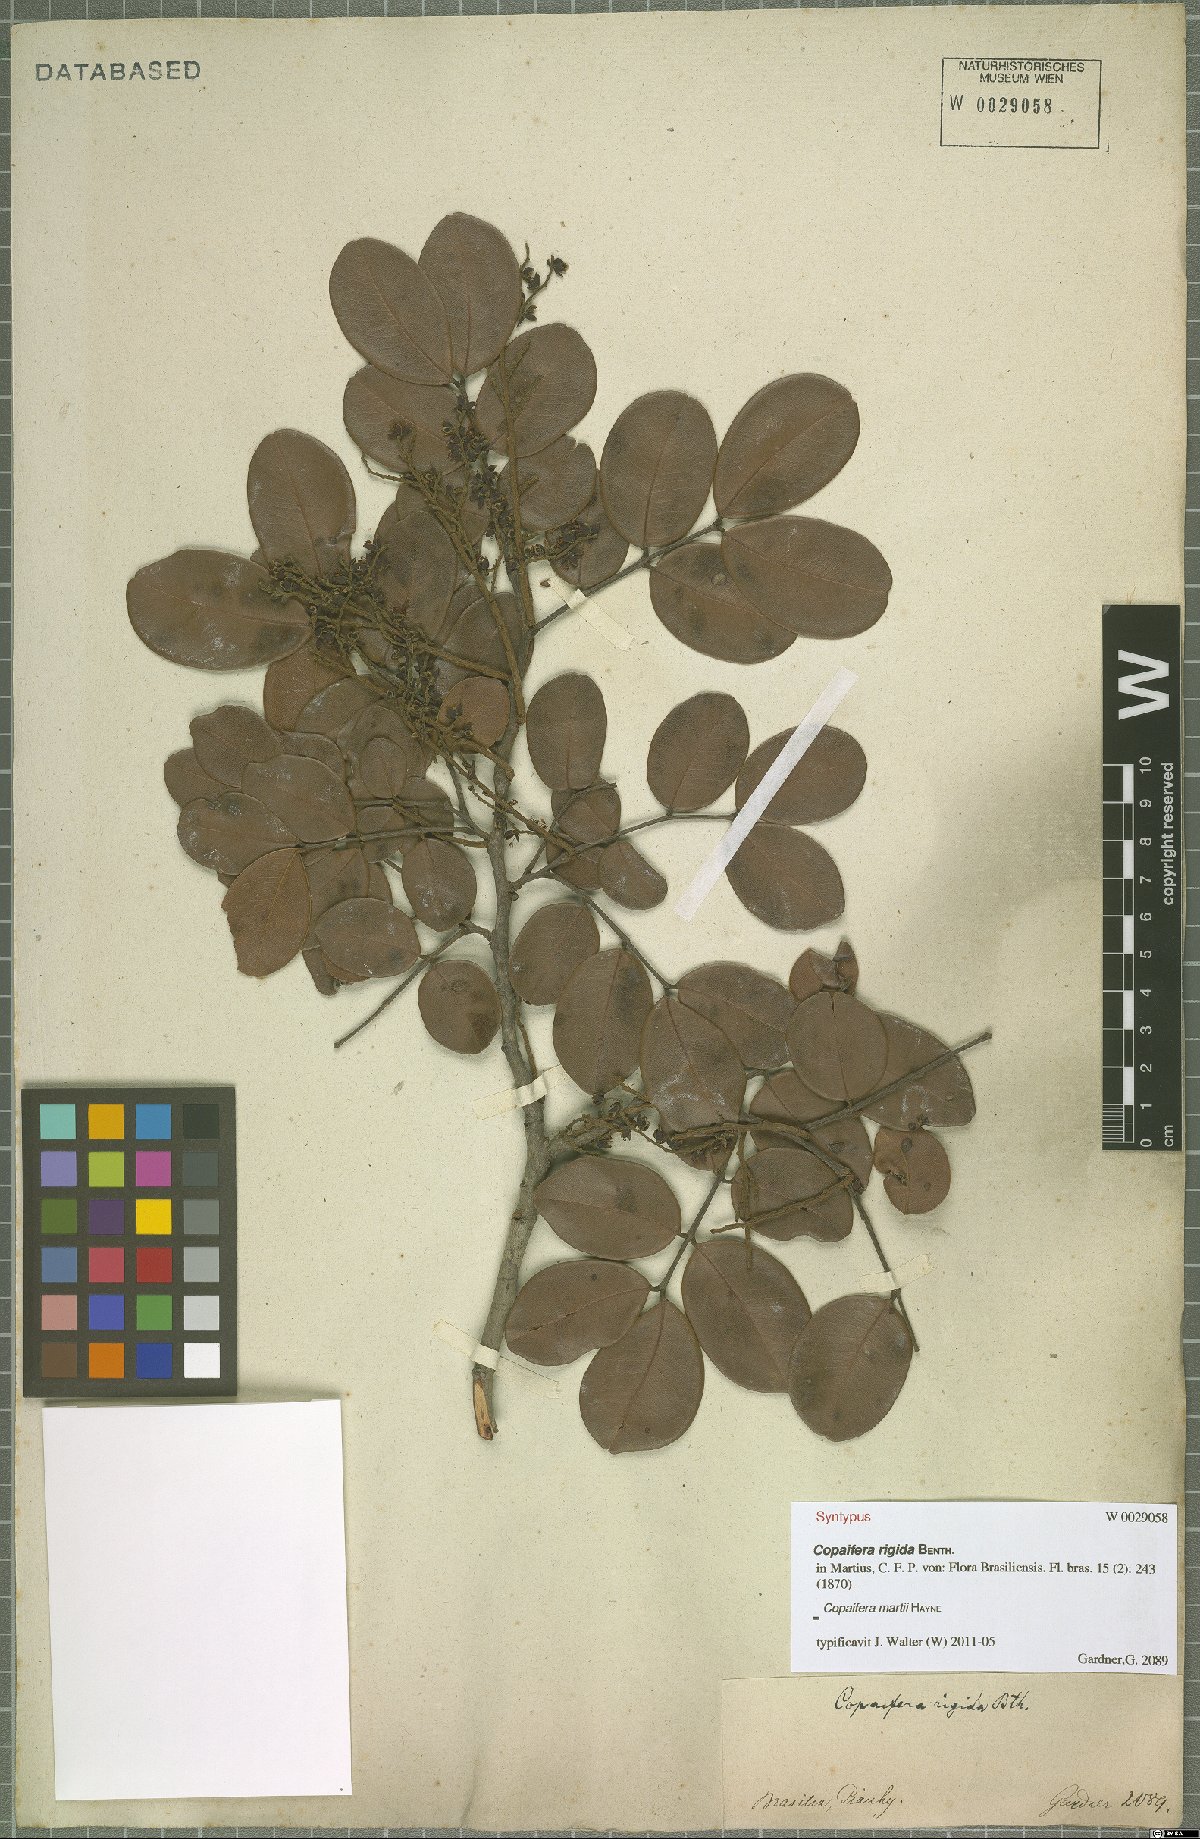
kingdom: Plantae
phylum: Tracheophyta
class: Magnoliopsida
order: Fabales
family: Fabaceae
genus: Copaifera
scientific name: Copaifera martii
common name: Copaiba
